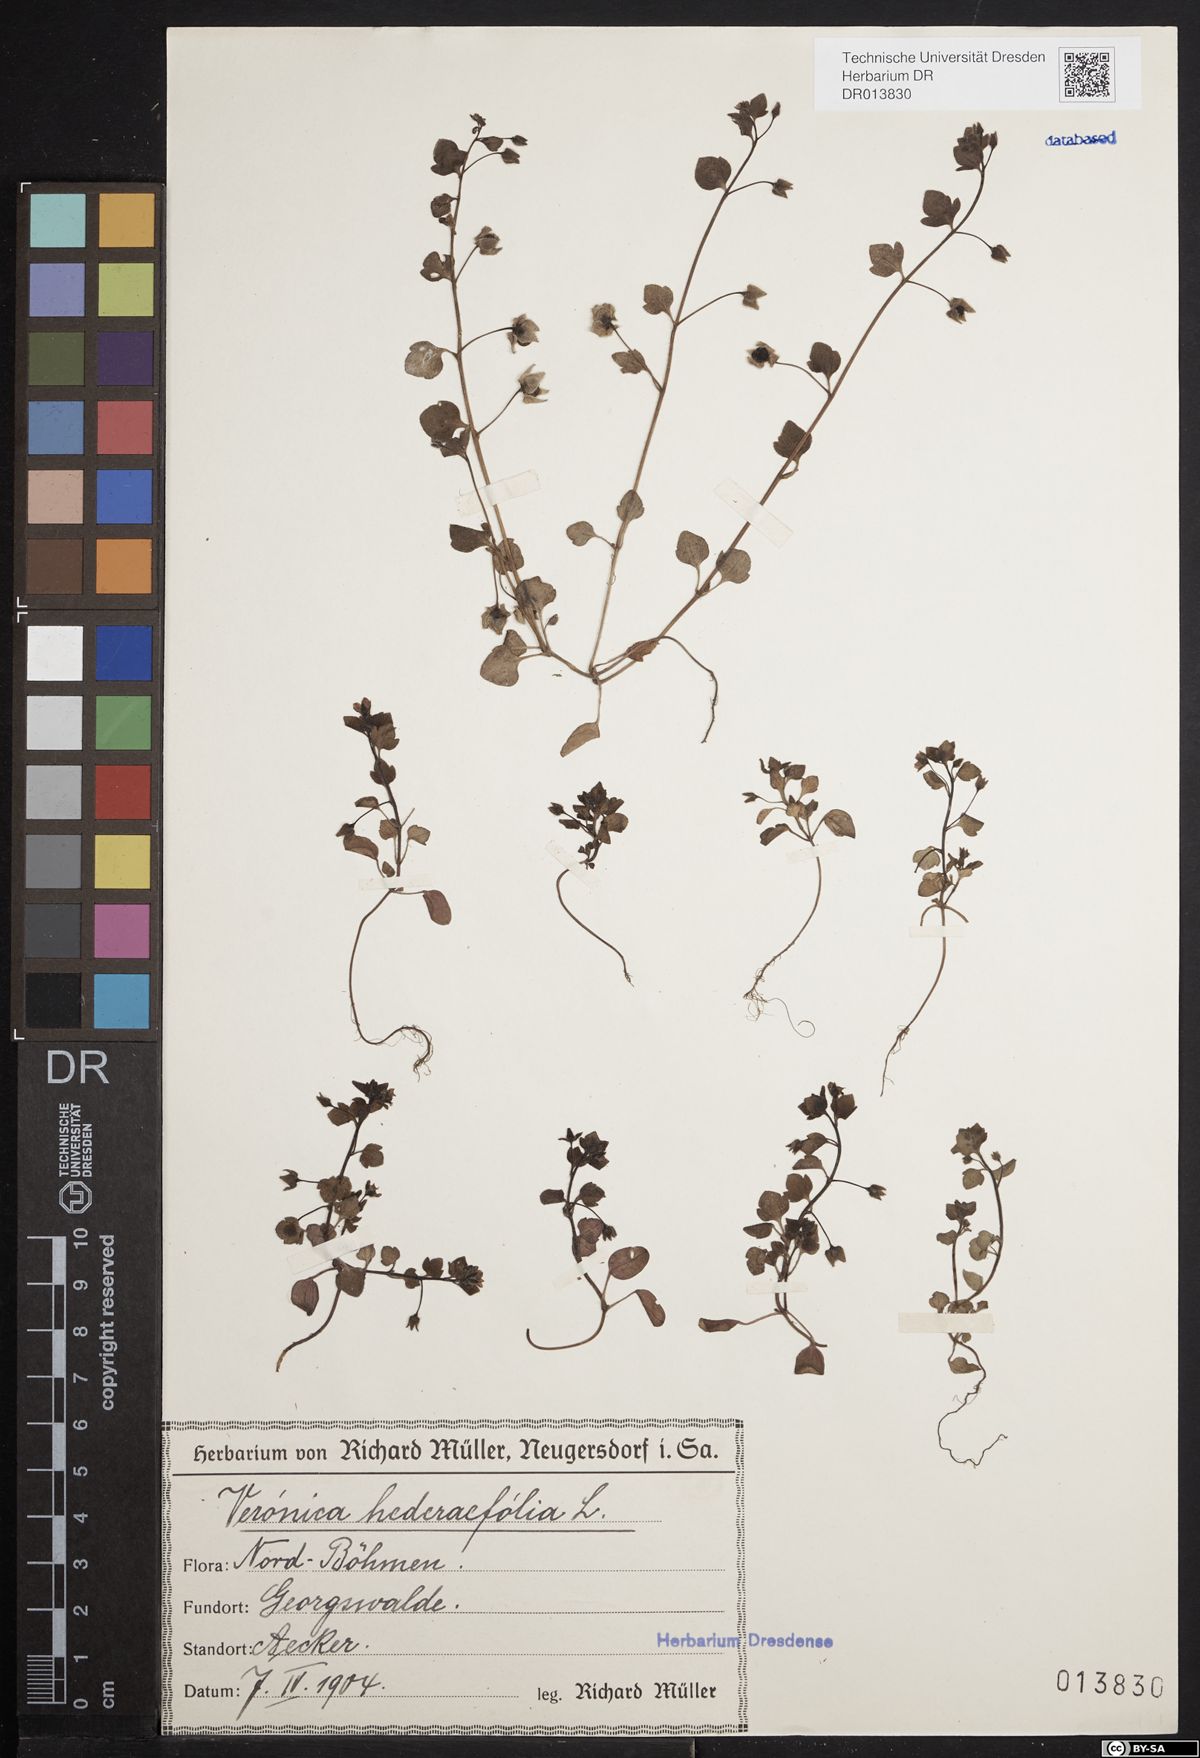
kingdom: Plantae
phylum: Tracheophyta
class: Magnoliopsida
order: Lamiales
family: Plantaginaceae
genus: Veronica
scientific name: Veronica hederifolia
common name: Ivy-leaved speedwell
